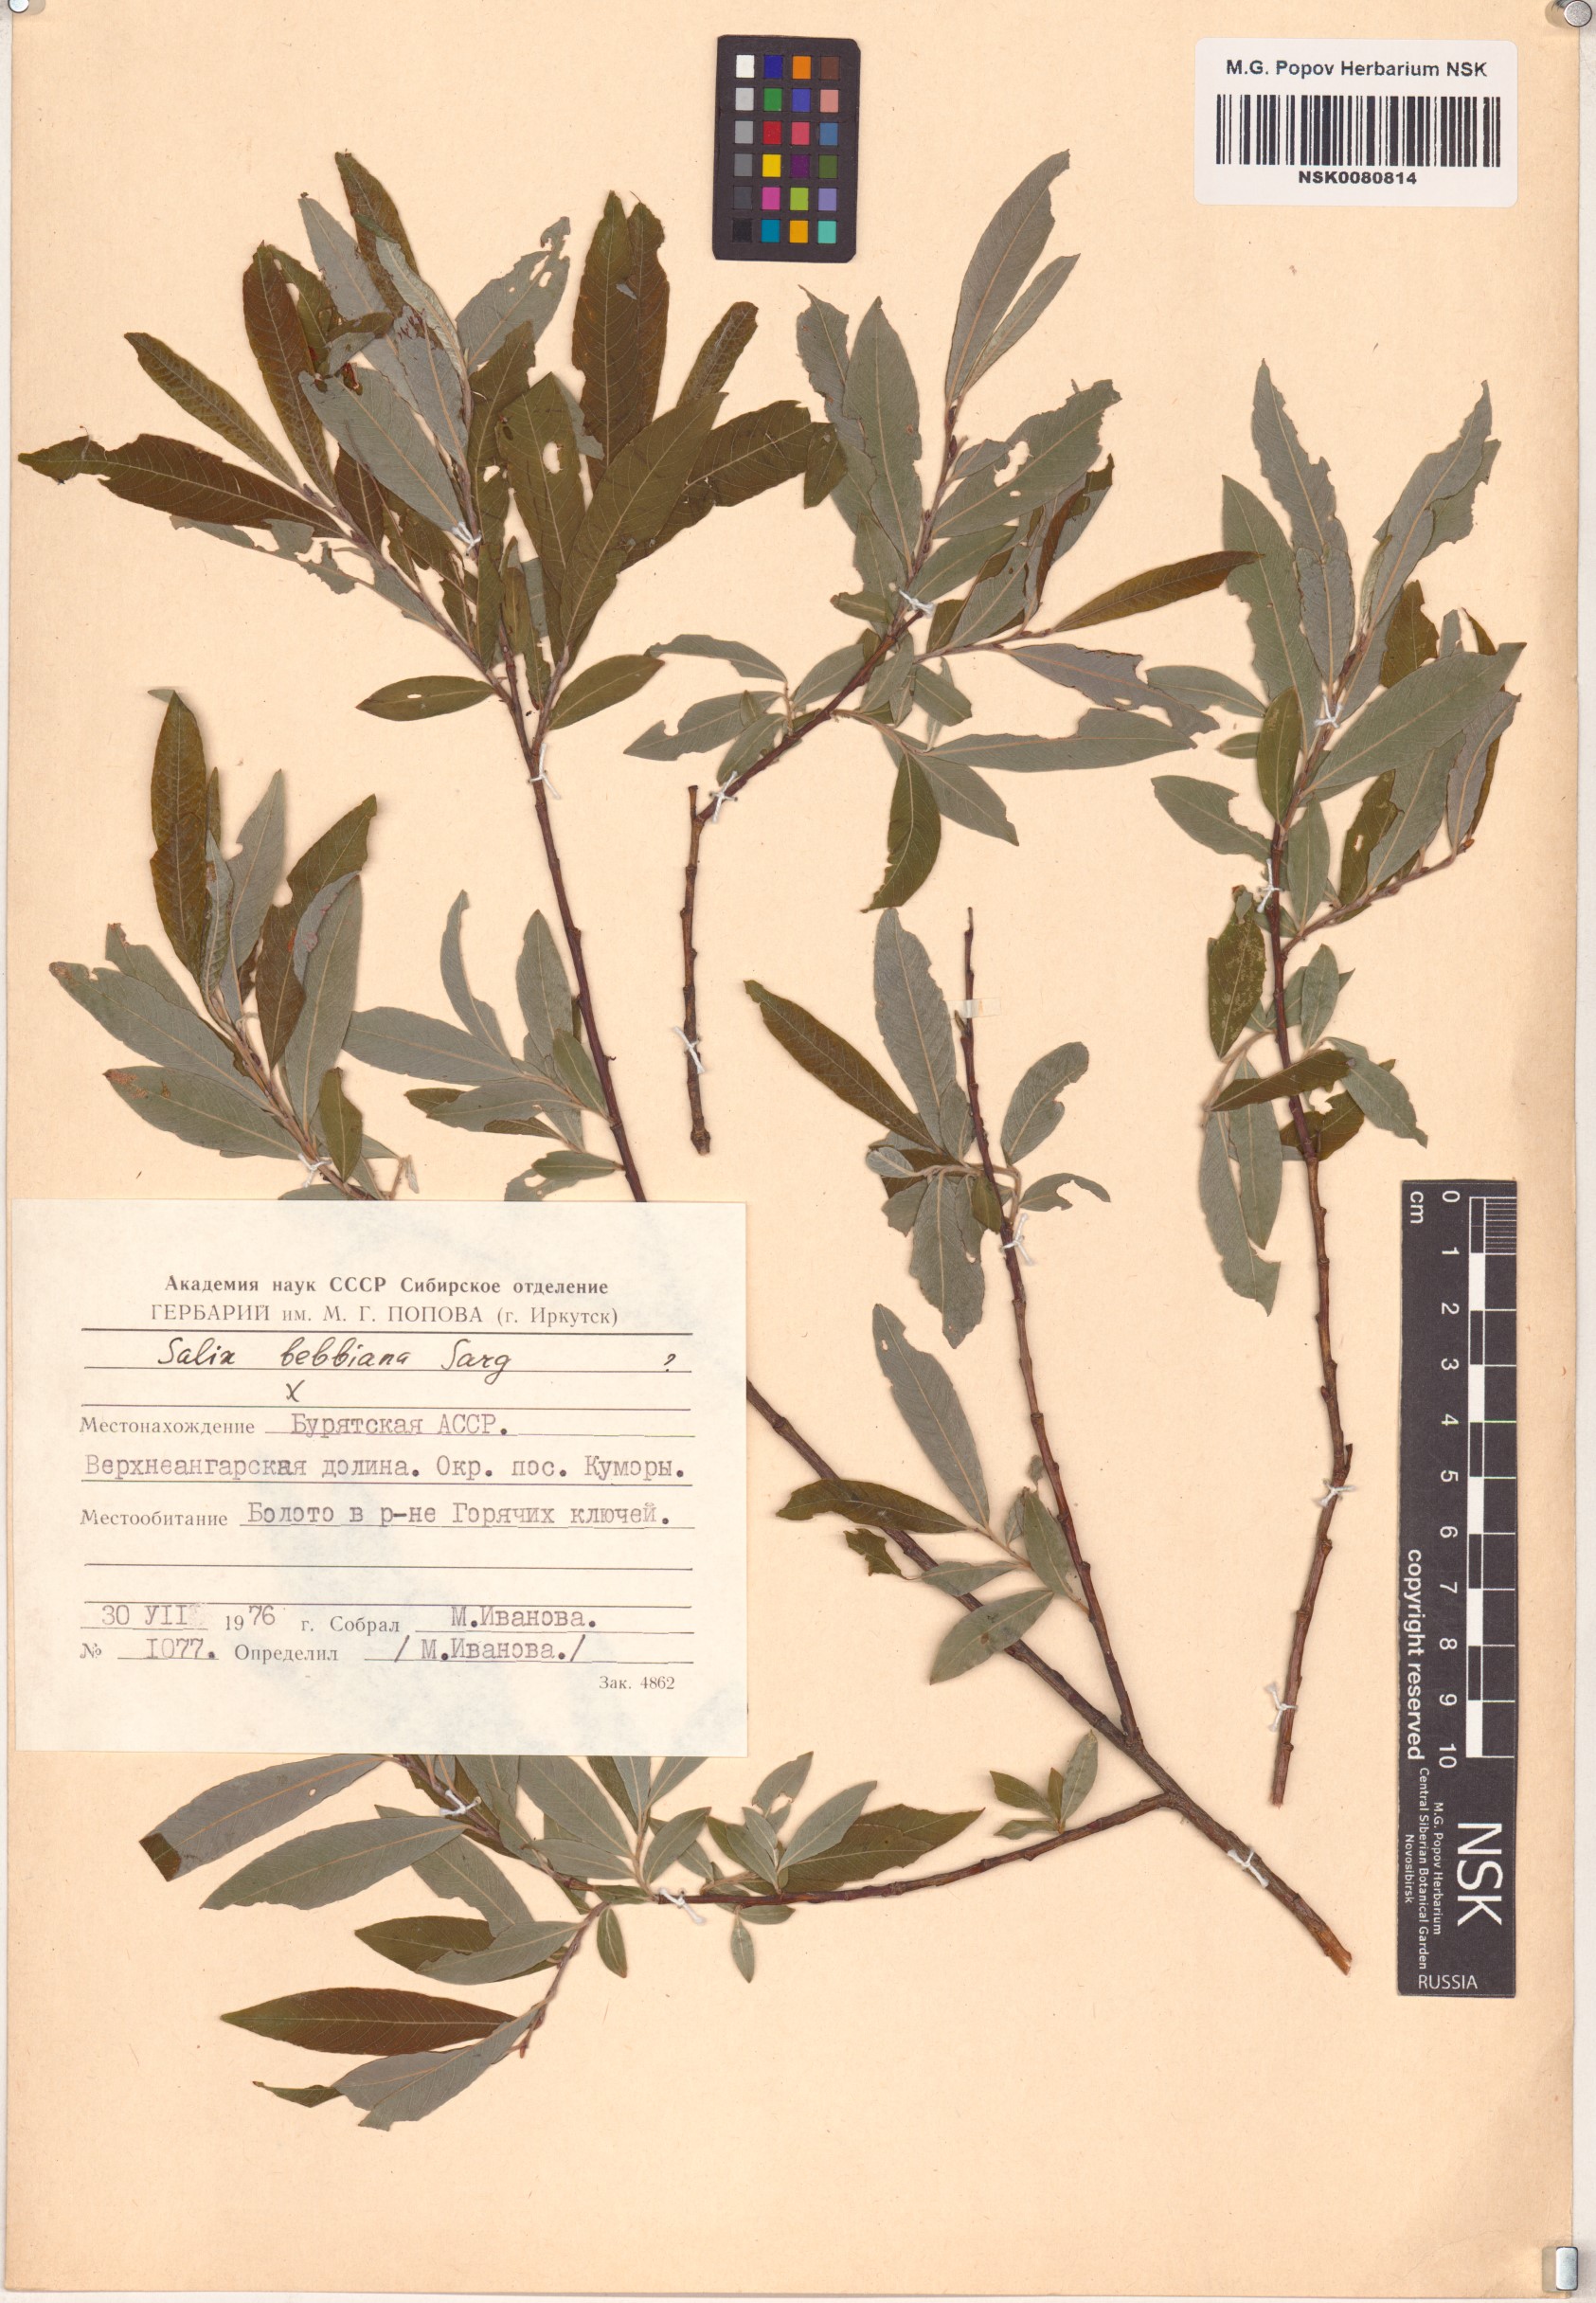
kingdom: Plantae
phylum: Tracheophyta
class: Magnoliopsida
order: Malpighiales
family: Salicaceae
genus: Salix
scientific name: Salix bebbiana
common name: Bebb's willow
